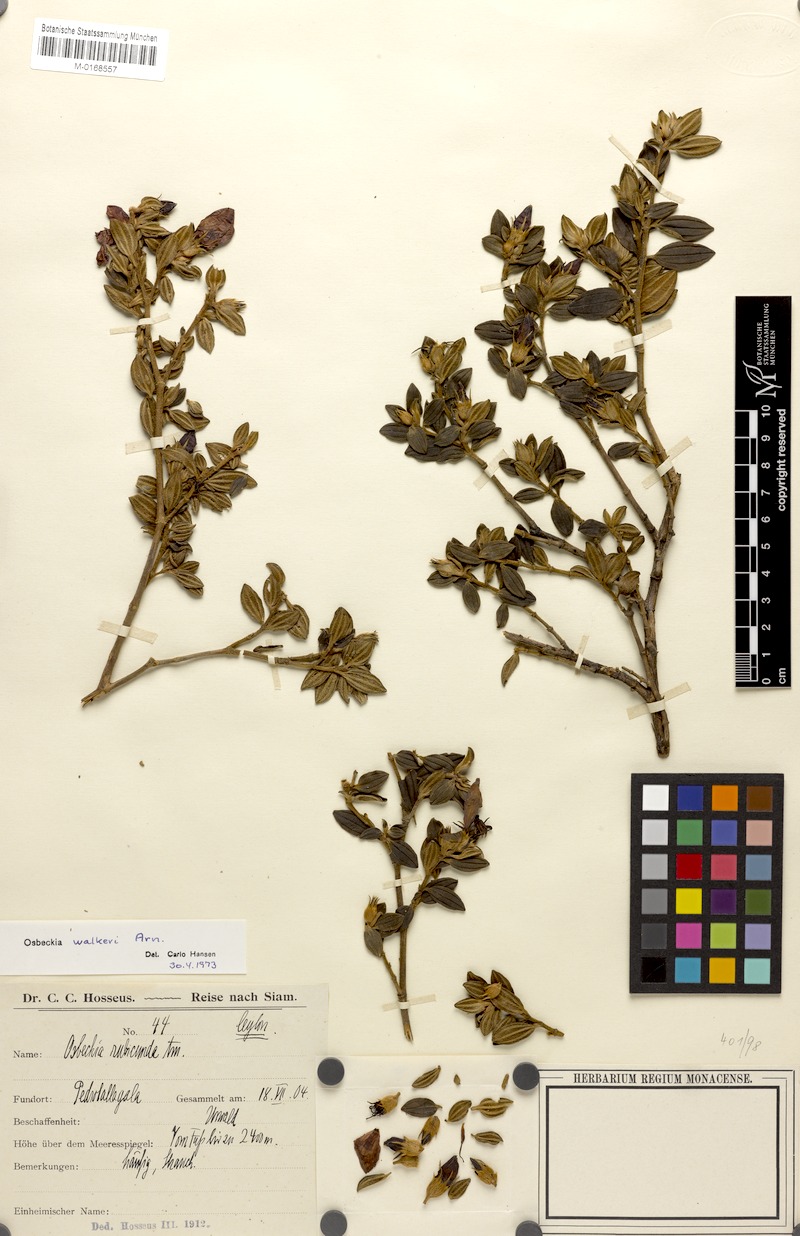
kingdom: Plantae
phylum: Tracheophyta
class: Magnoliopsida
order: Myrtales
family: Melastomataceae
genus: Osbeckia
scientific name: Osbeckia walkeri
